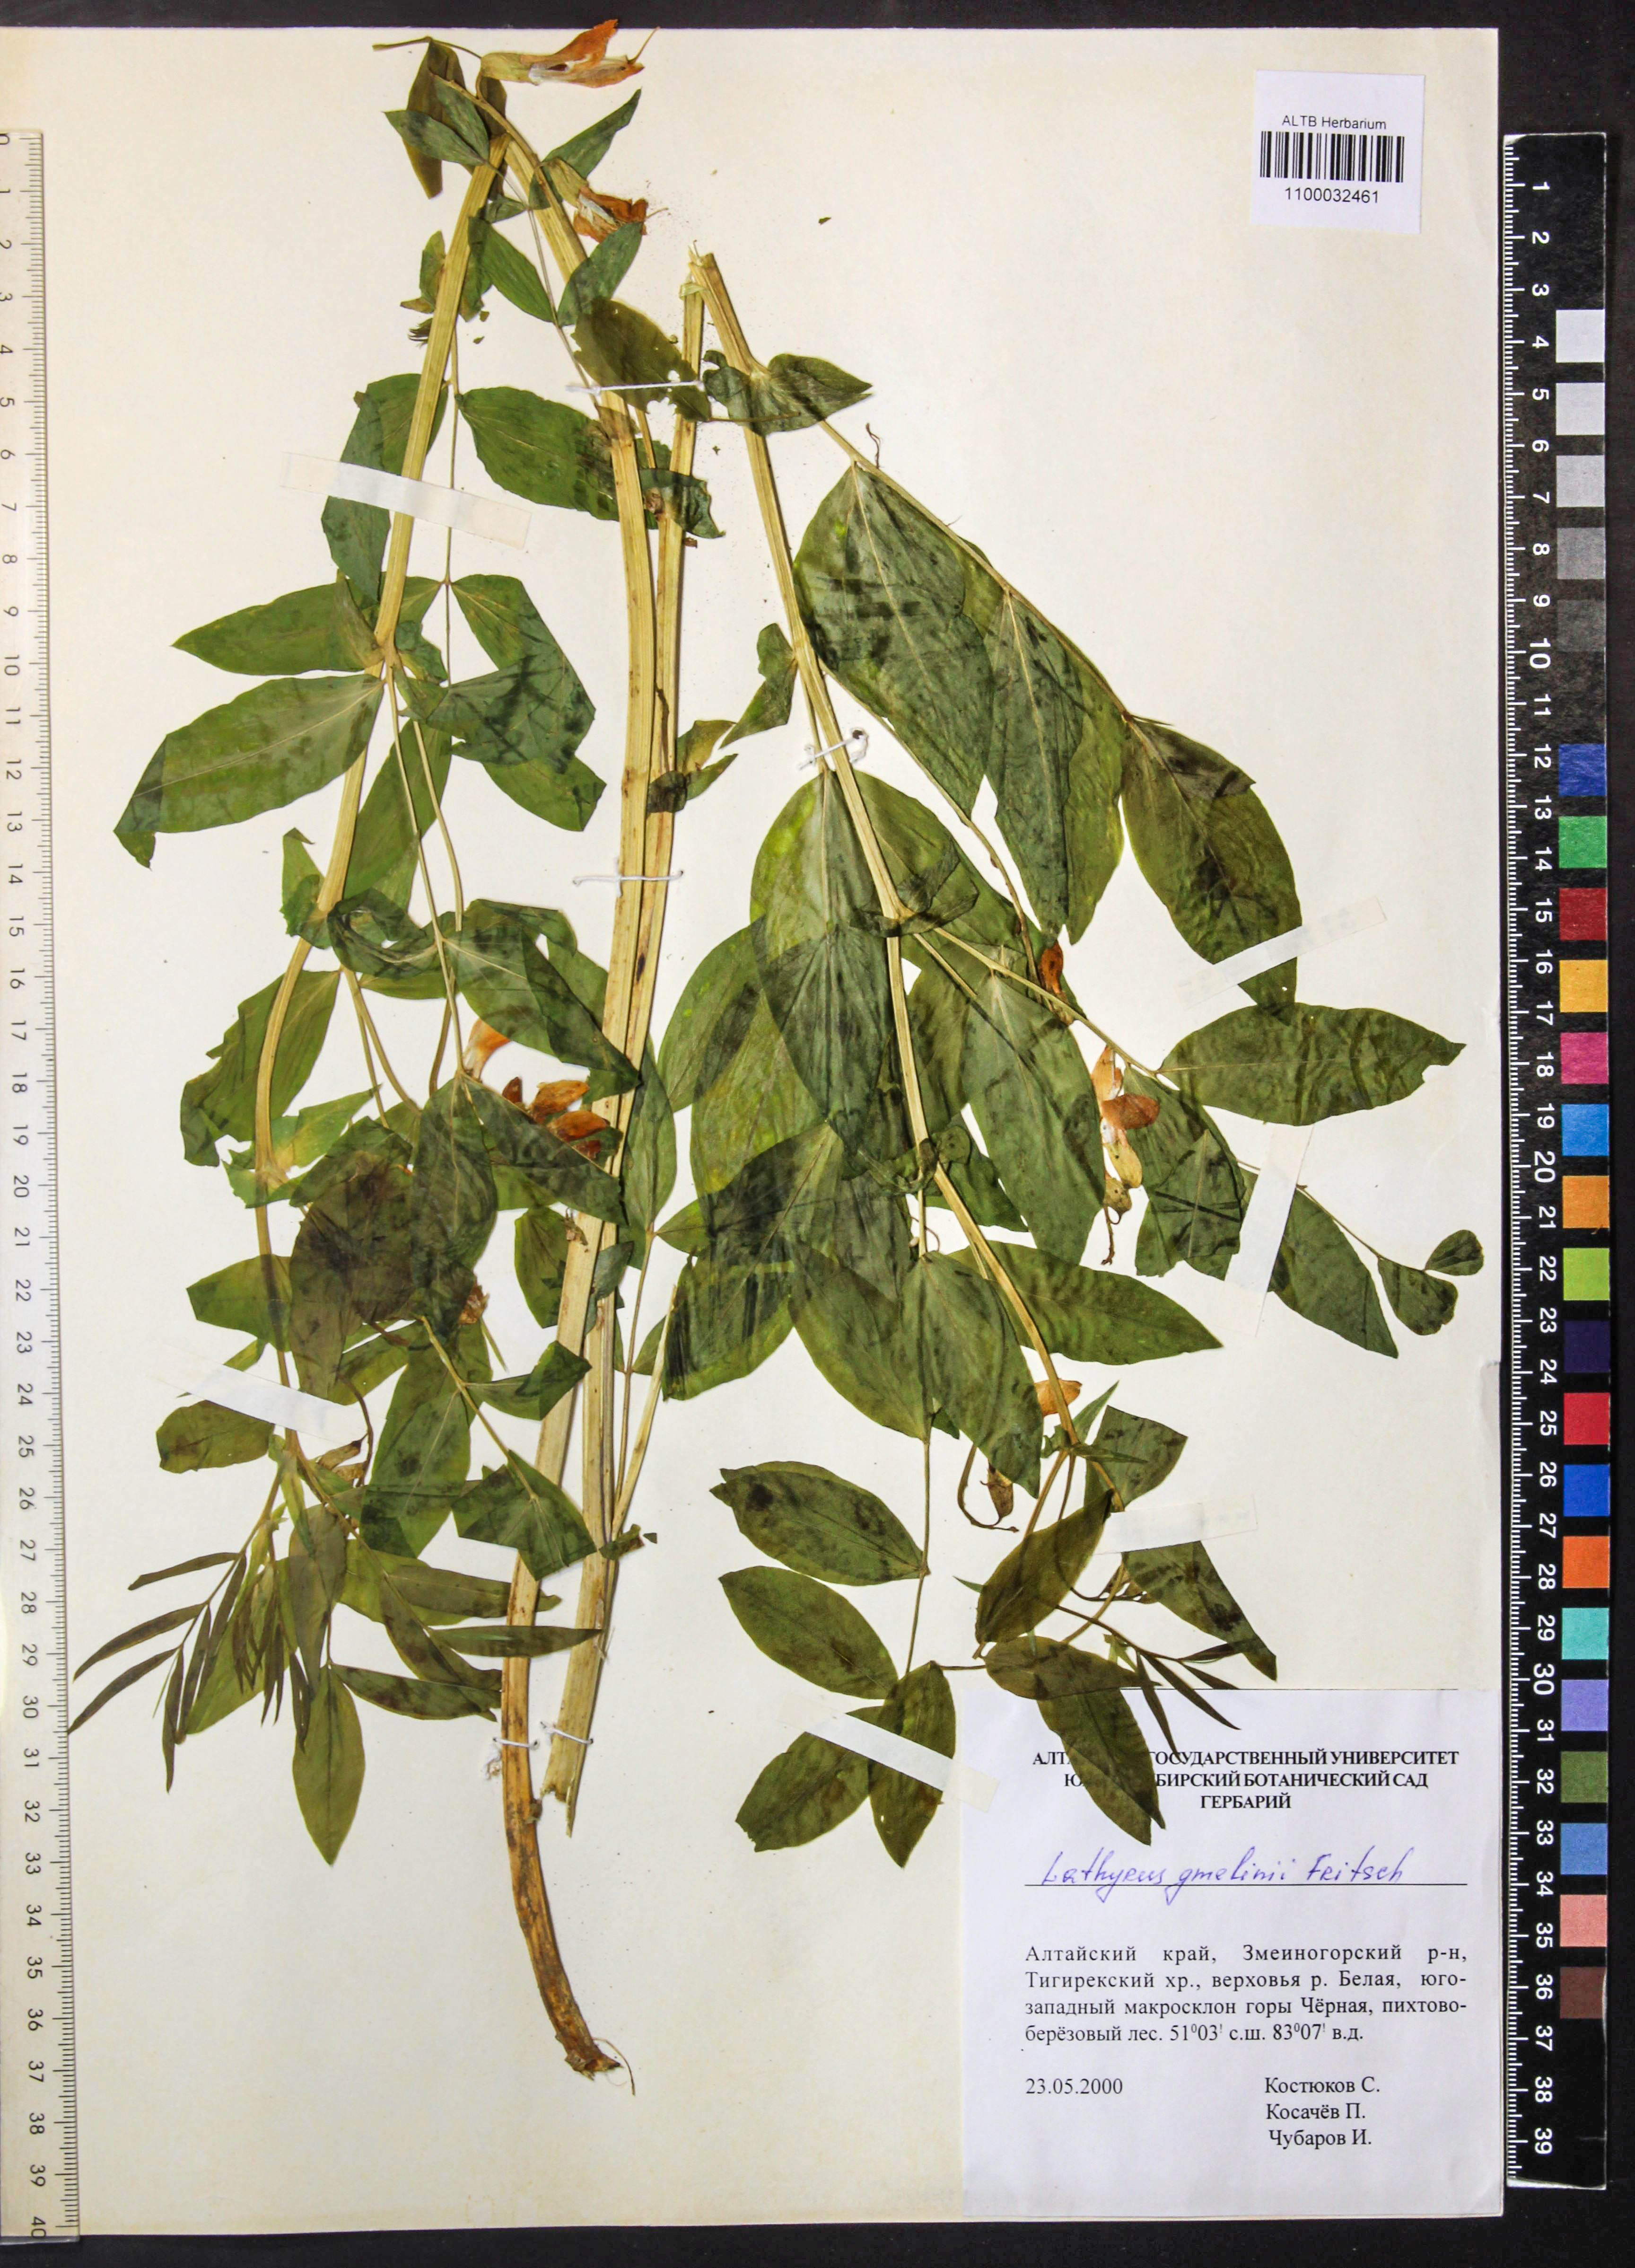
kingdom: Plantae
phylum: Tracheophyta
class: Magnoliopsida
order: Fabales
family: Fabaceae
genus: Lathyrus
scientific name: Lathyrus gmelinii
